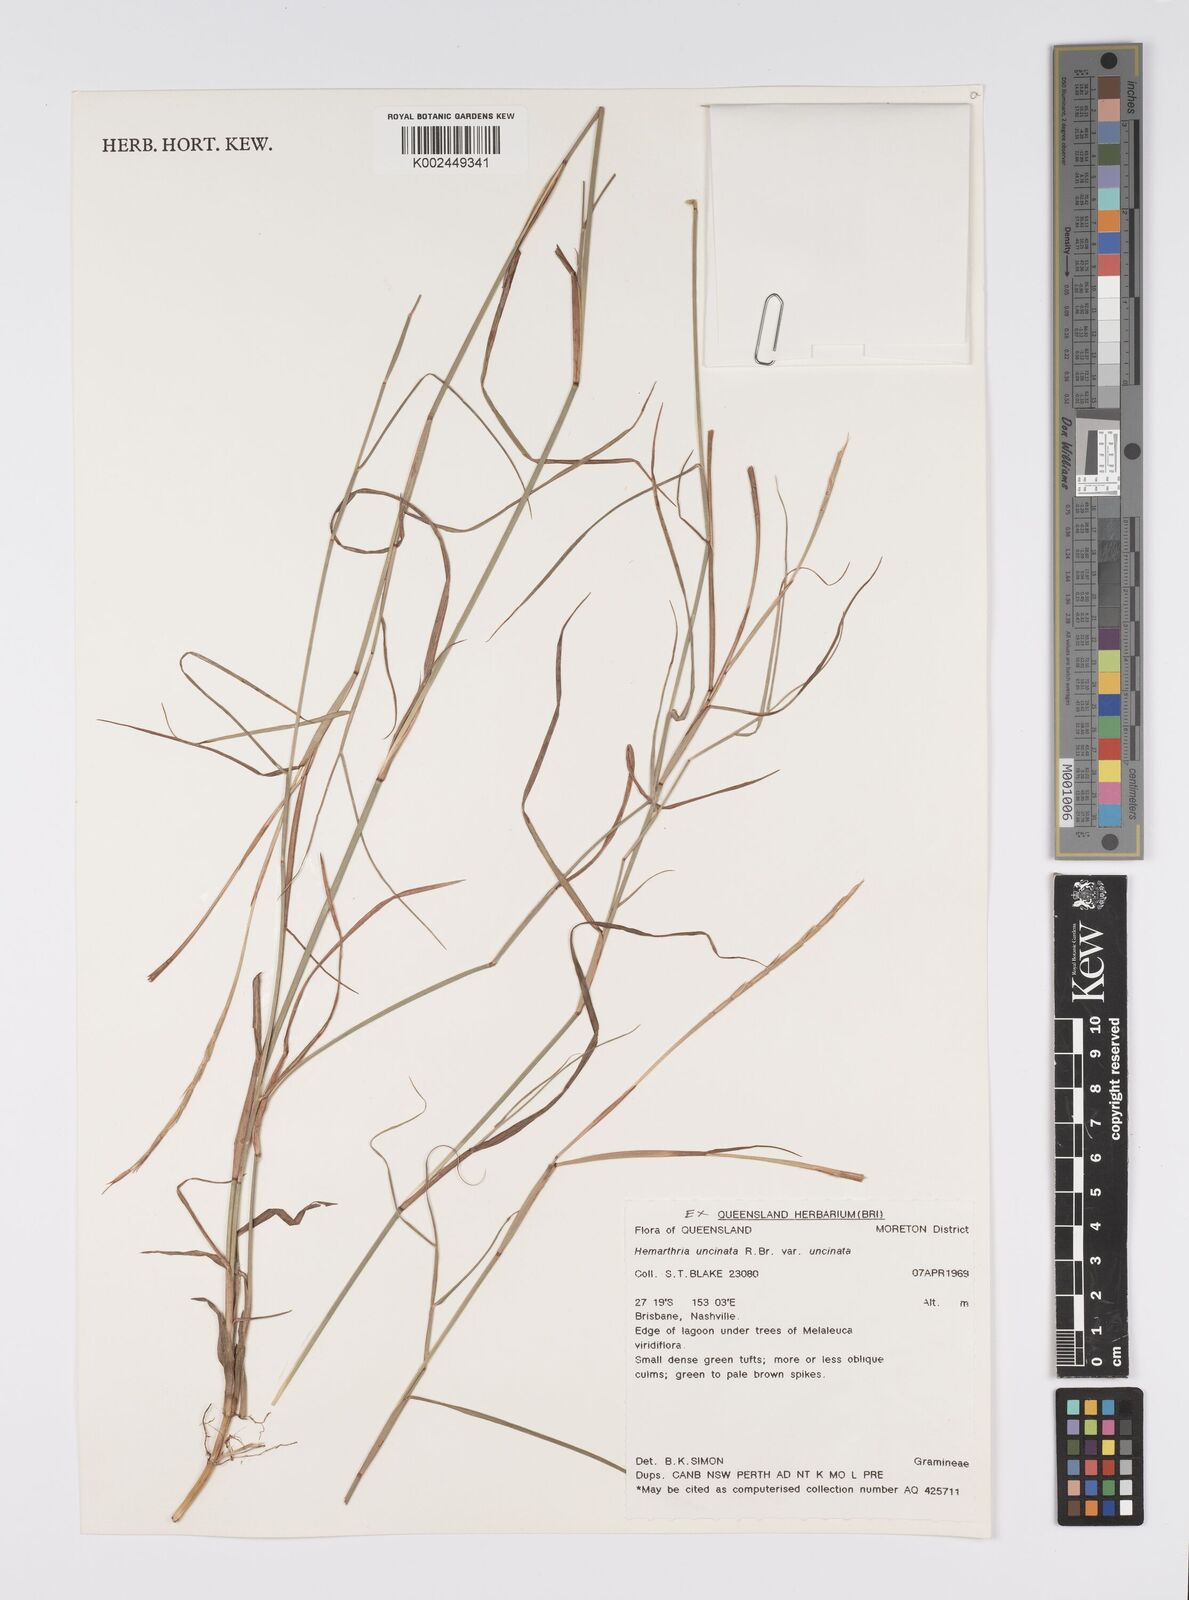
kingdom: Plantae
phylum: Tracheophyta
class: Liliopsida
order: Poales
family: Poaceae
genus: Hemarthria
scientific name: Hemarthria uncinata
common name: Matgrass
